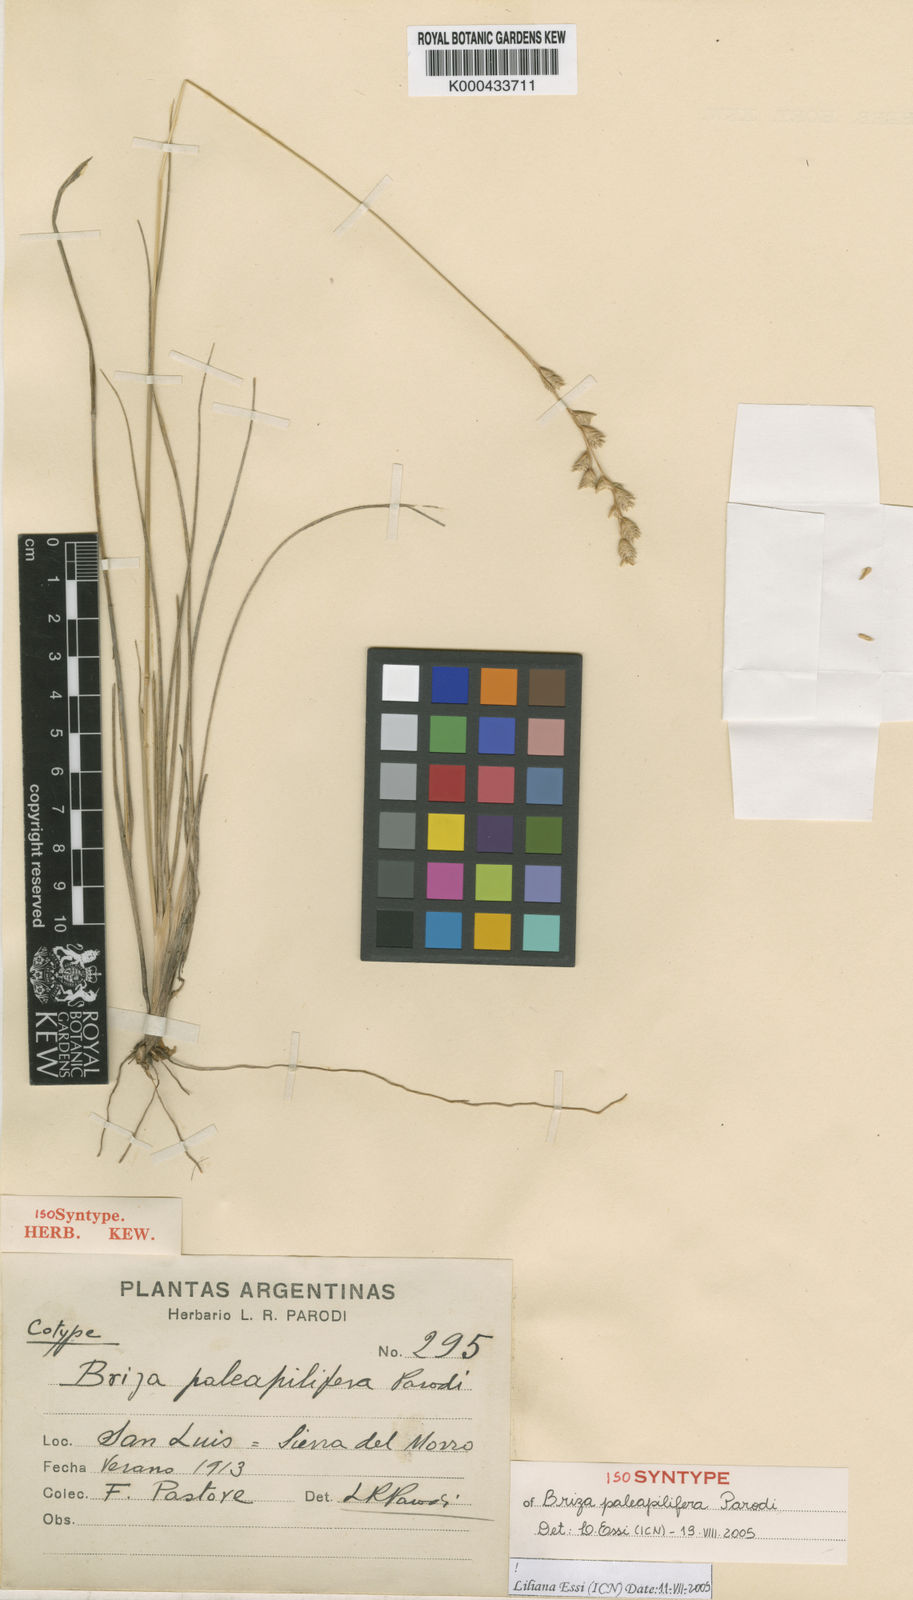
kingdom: Plantae
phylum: Tracheophyta
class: Liliopsida
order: Poales
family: Poaceae
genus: Chascolytrum
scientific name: Chascolytrum paleapiliferum
